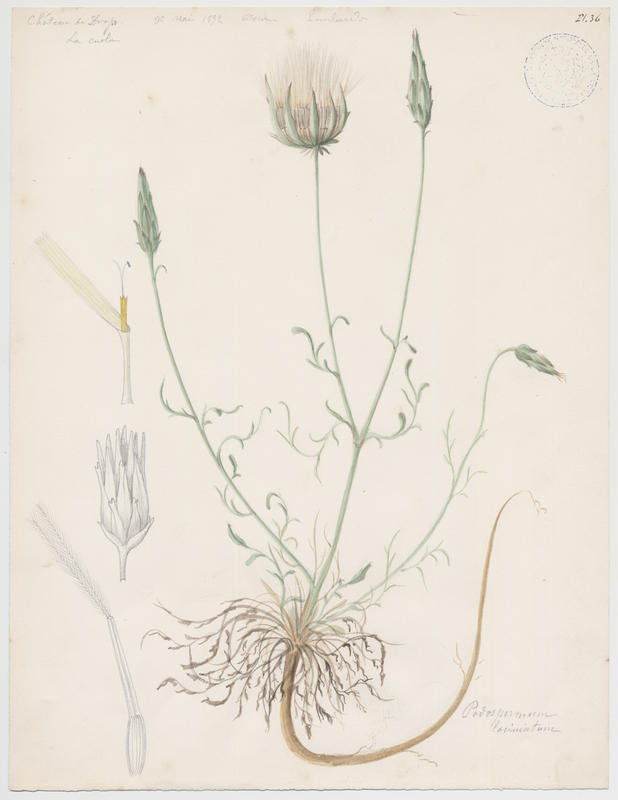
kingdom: Plantae
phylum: Tracheophyta
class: Magnoliopsida
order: Asterales
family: Asteraceae
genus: Scorzonera
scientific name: Scorzonera laciniata
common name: Cutleaf vipergrass
